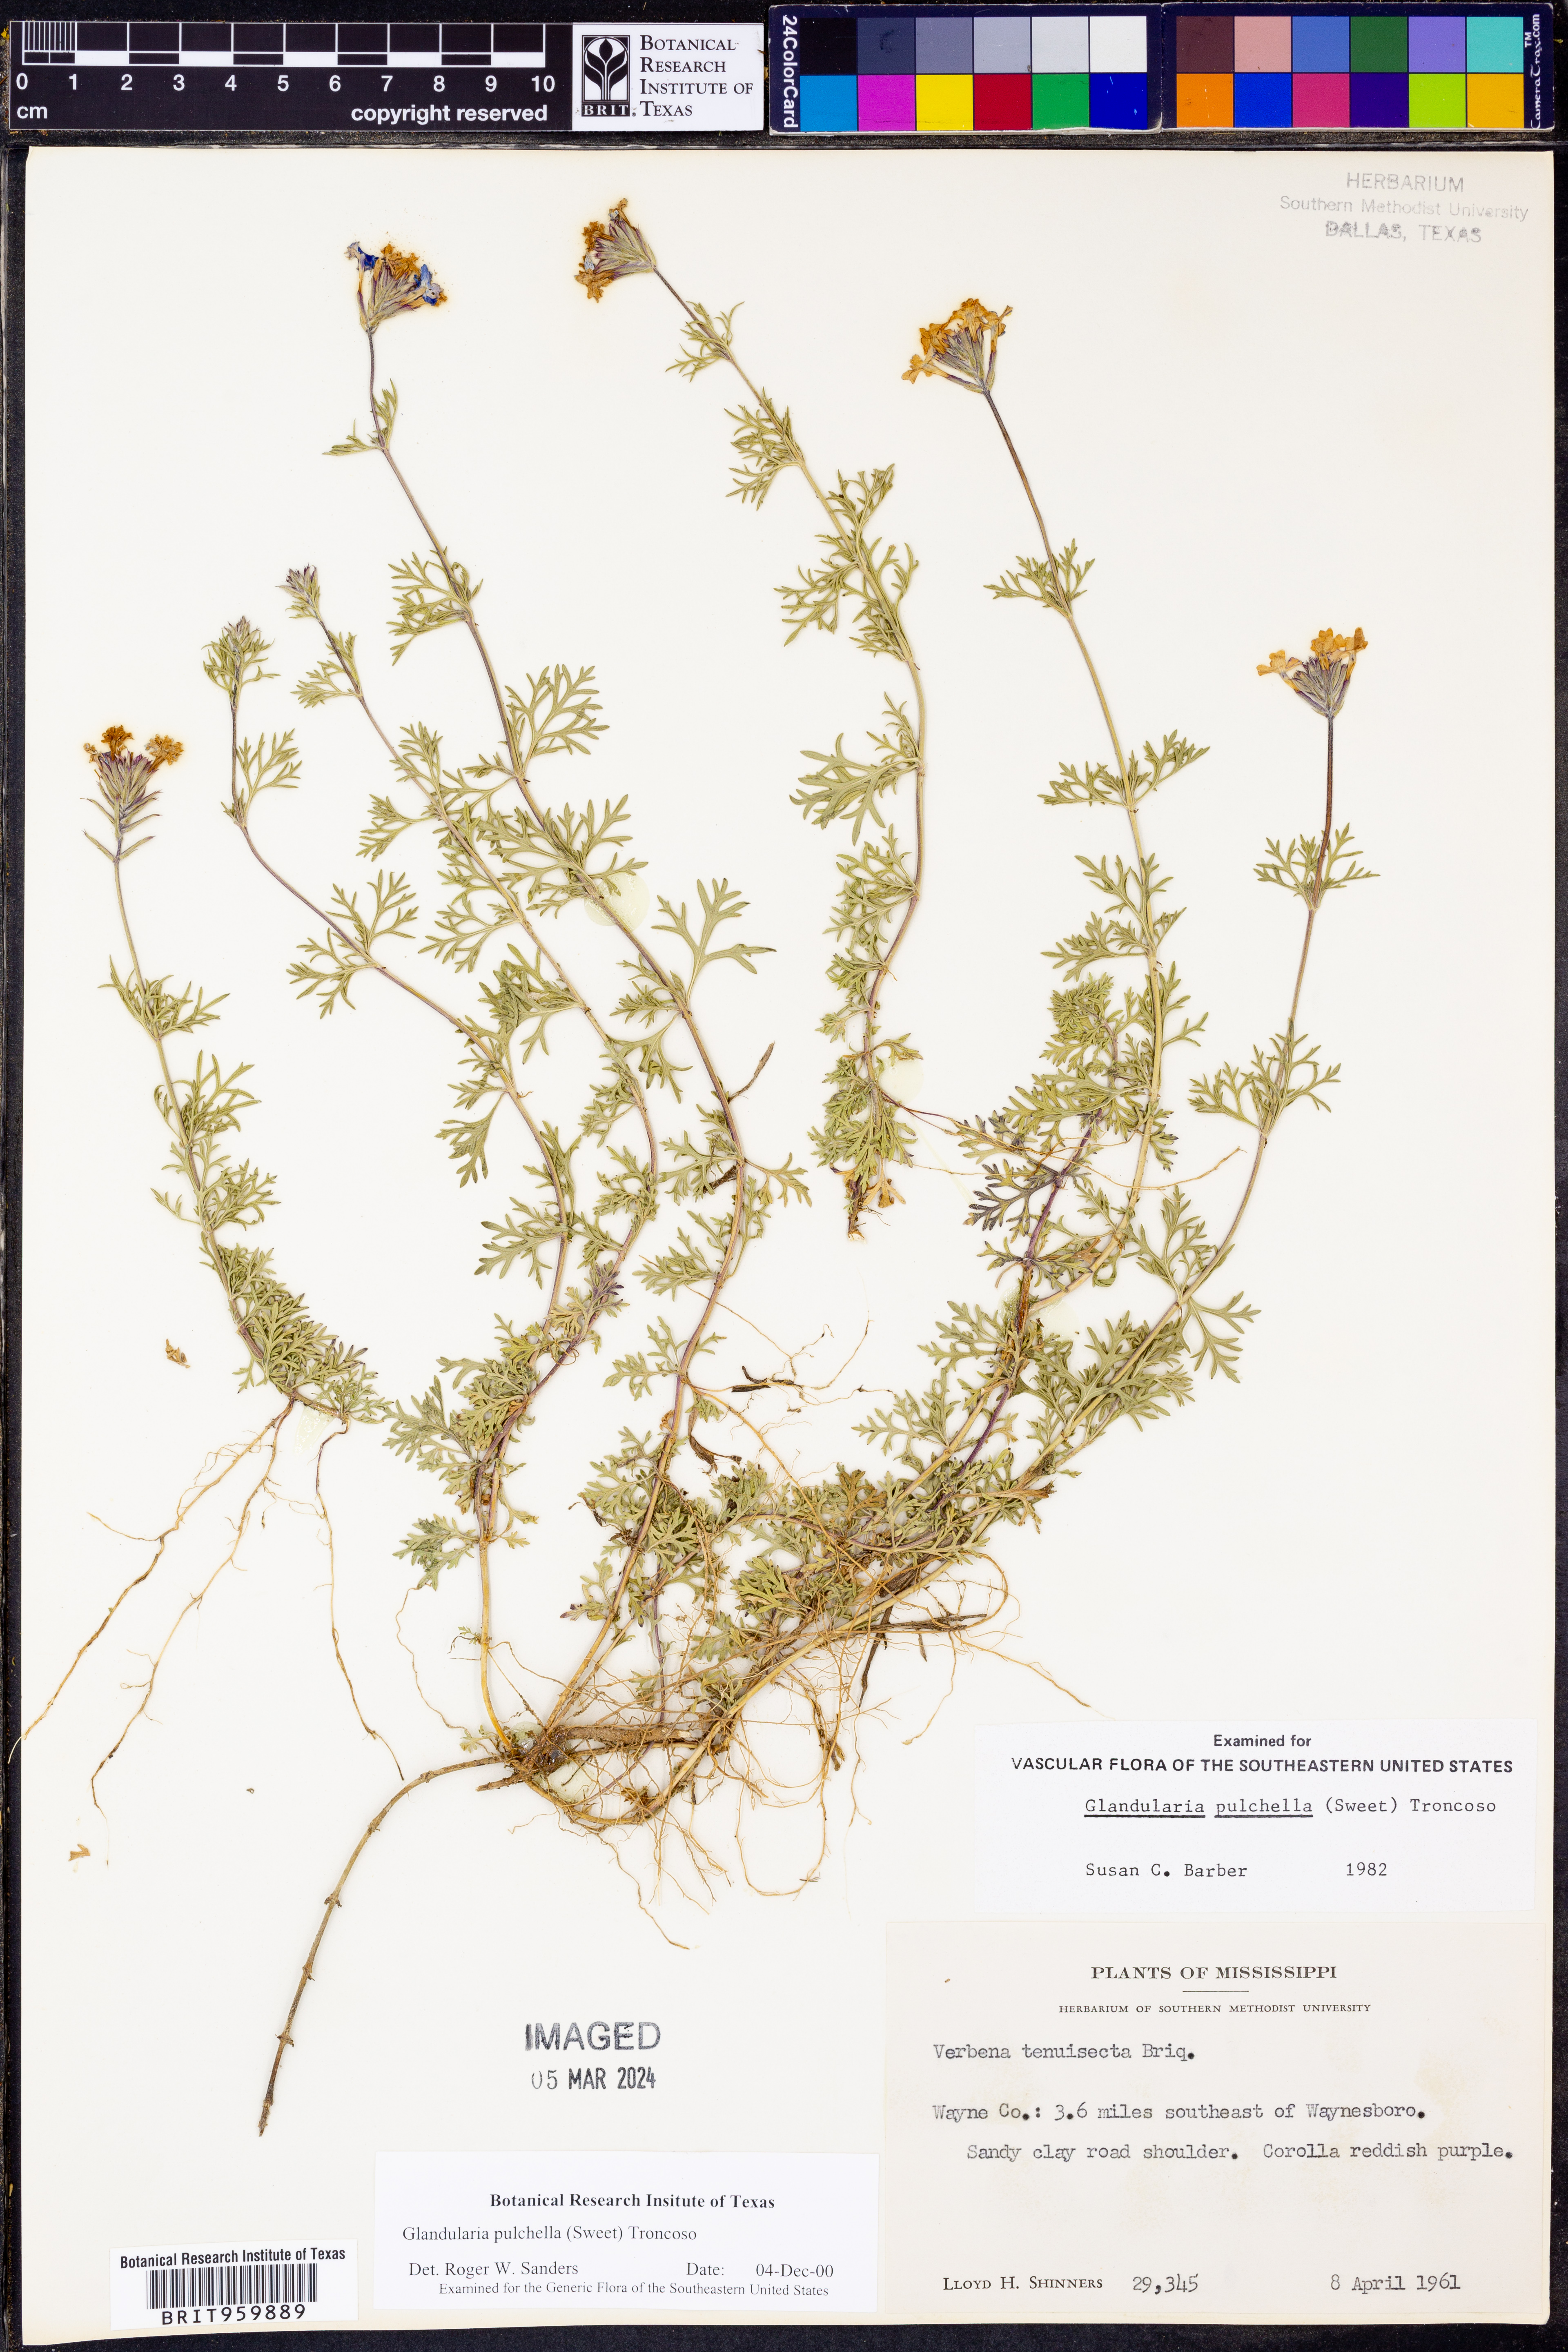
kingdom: Plantae
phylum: Tracheophyta
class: Magnoliopsida
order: Lamiales
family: Verbenaceae
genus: Verbena
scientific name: Verbena tenera
